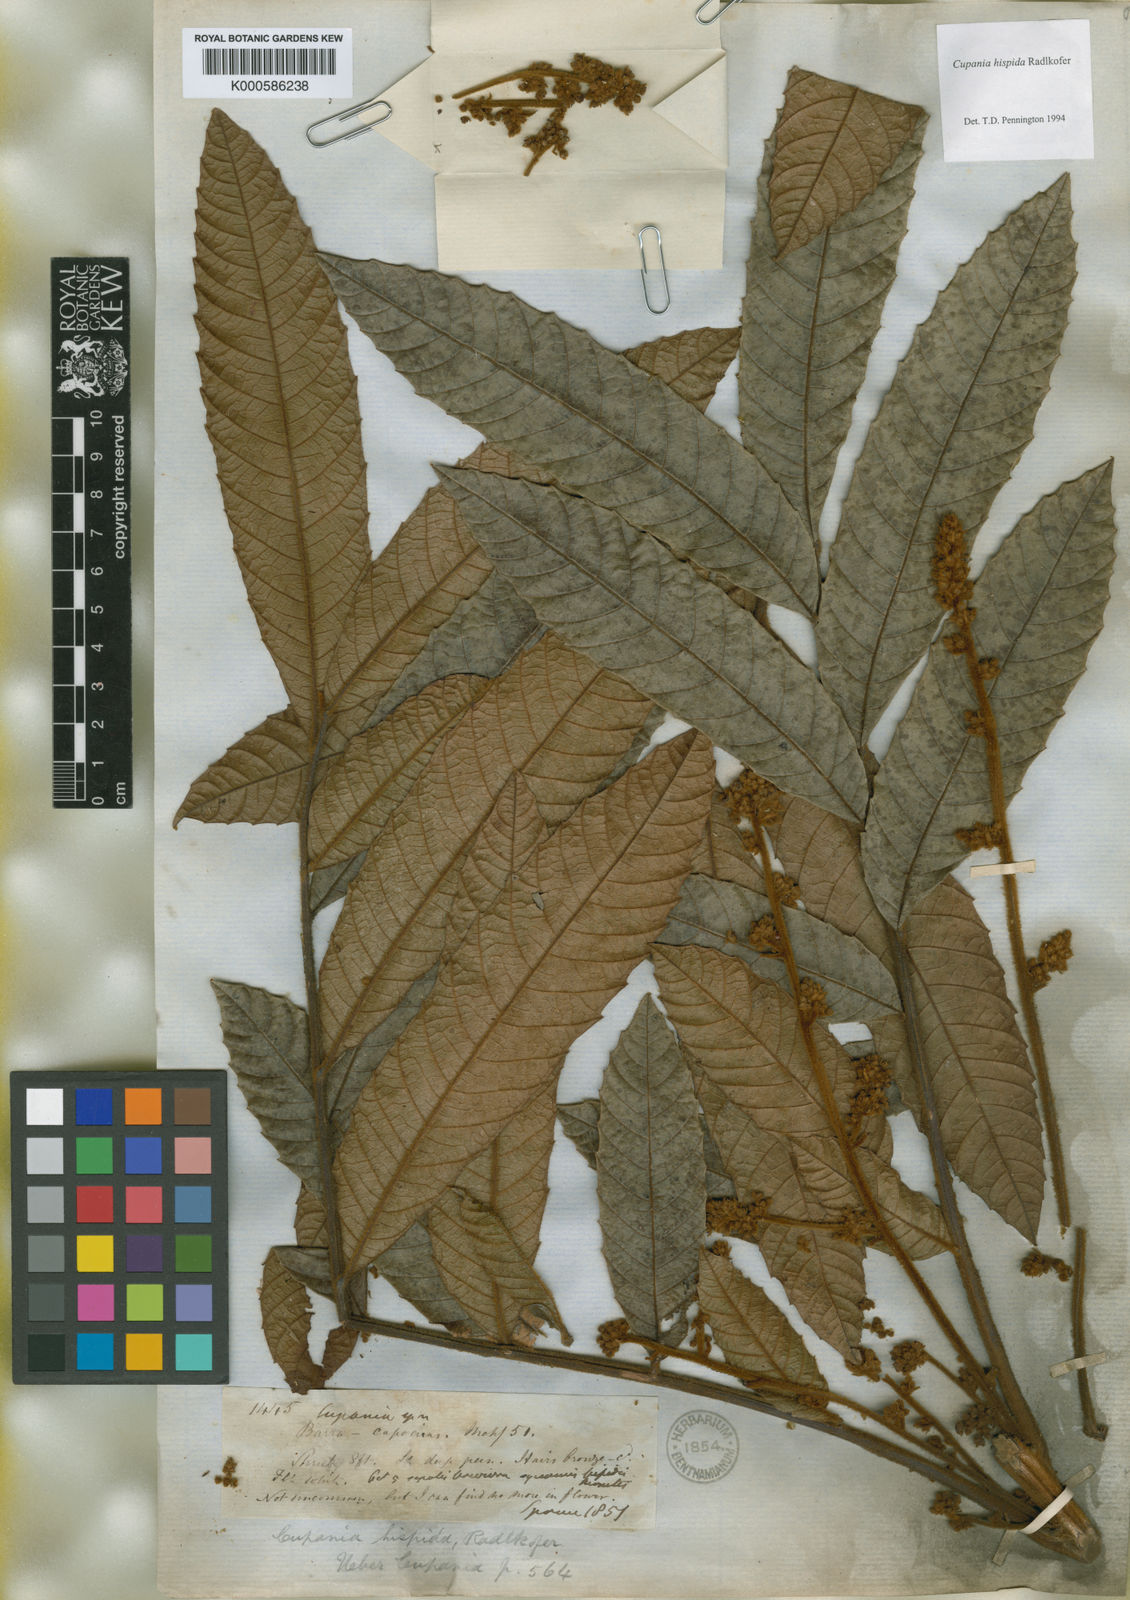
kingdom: Plantae
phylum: Tracheophyta
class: Magnoliopsida
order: Sapindales
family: Sapindaceae
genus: Cupania
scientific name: Cupania hispida
